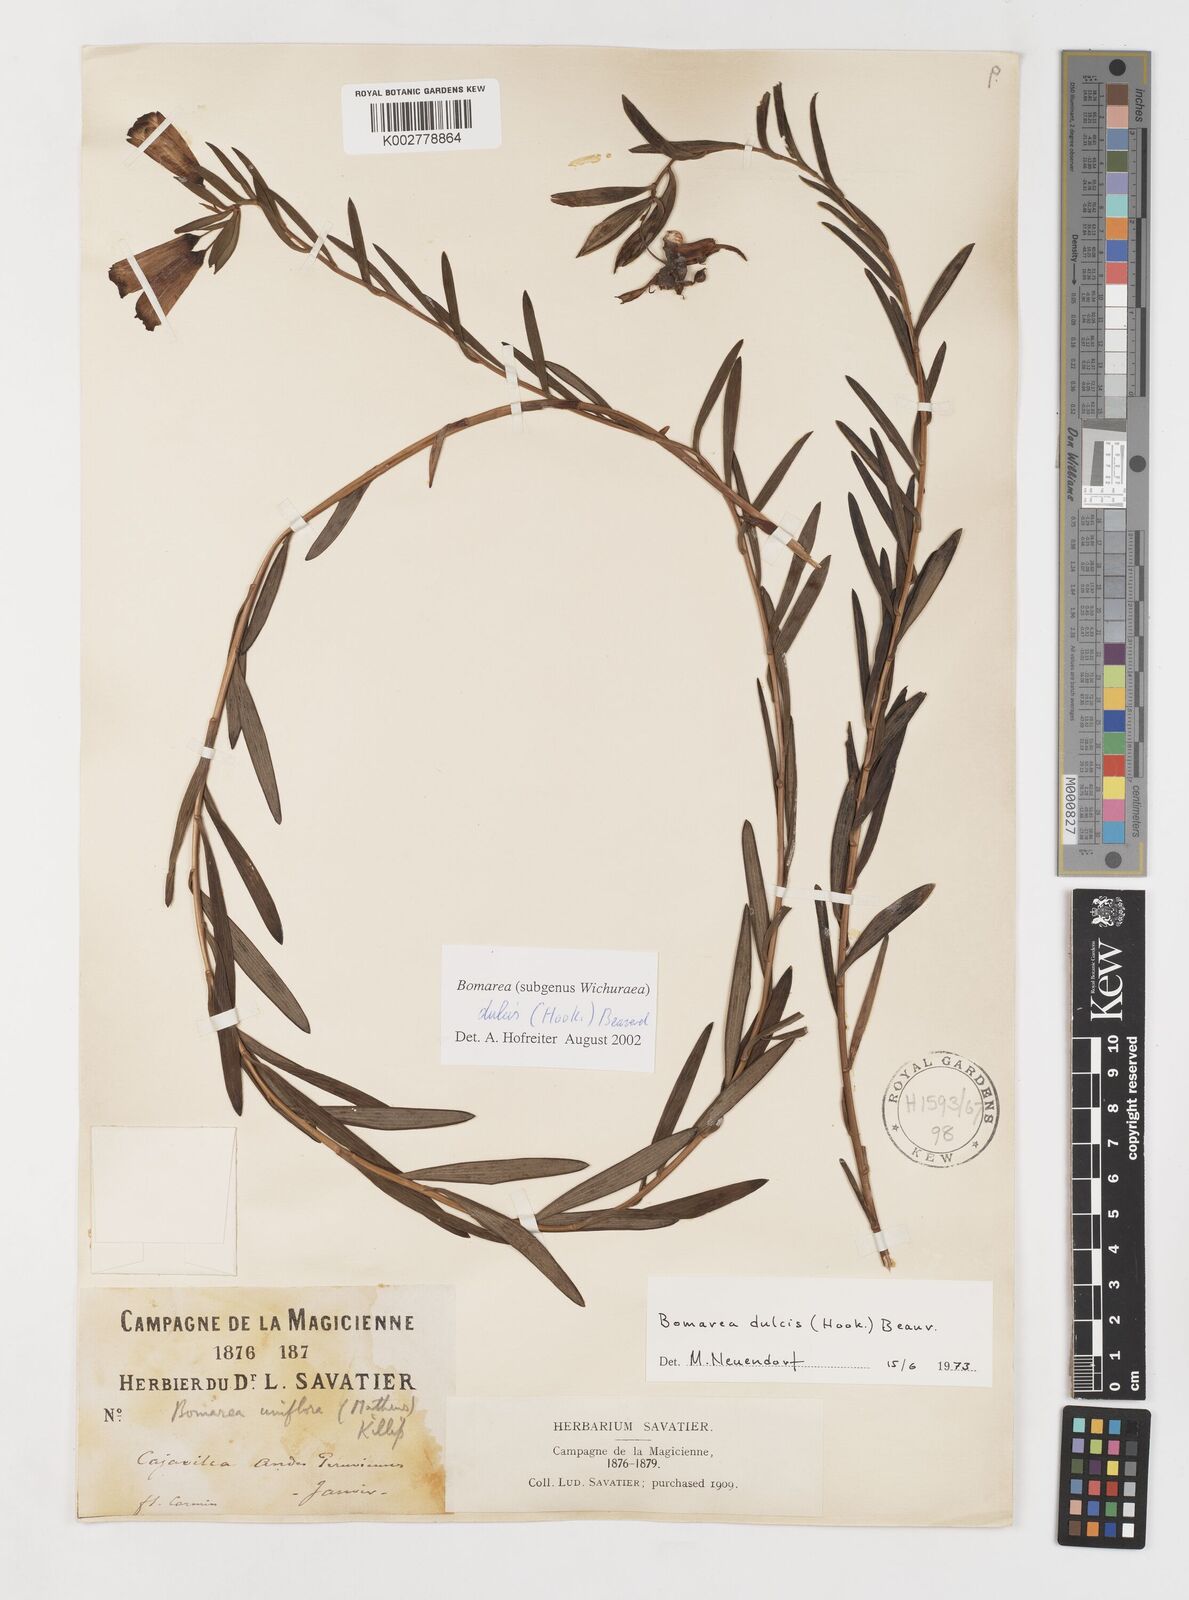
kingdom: Plantae
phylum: Tracheophyta
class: Liliopsida
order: Liliales
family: Alstroemeriaceae
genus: Bomarea
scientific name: Bomarea dulcis
